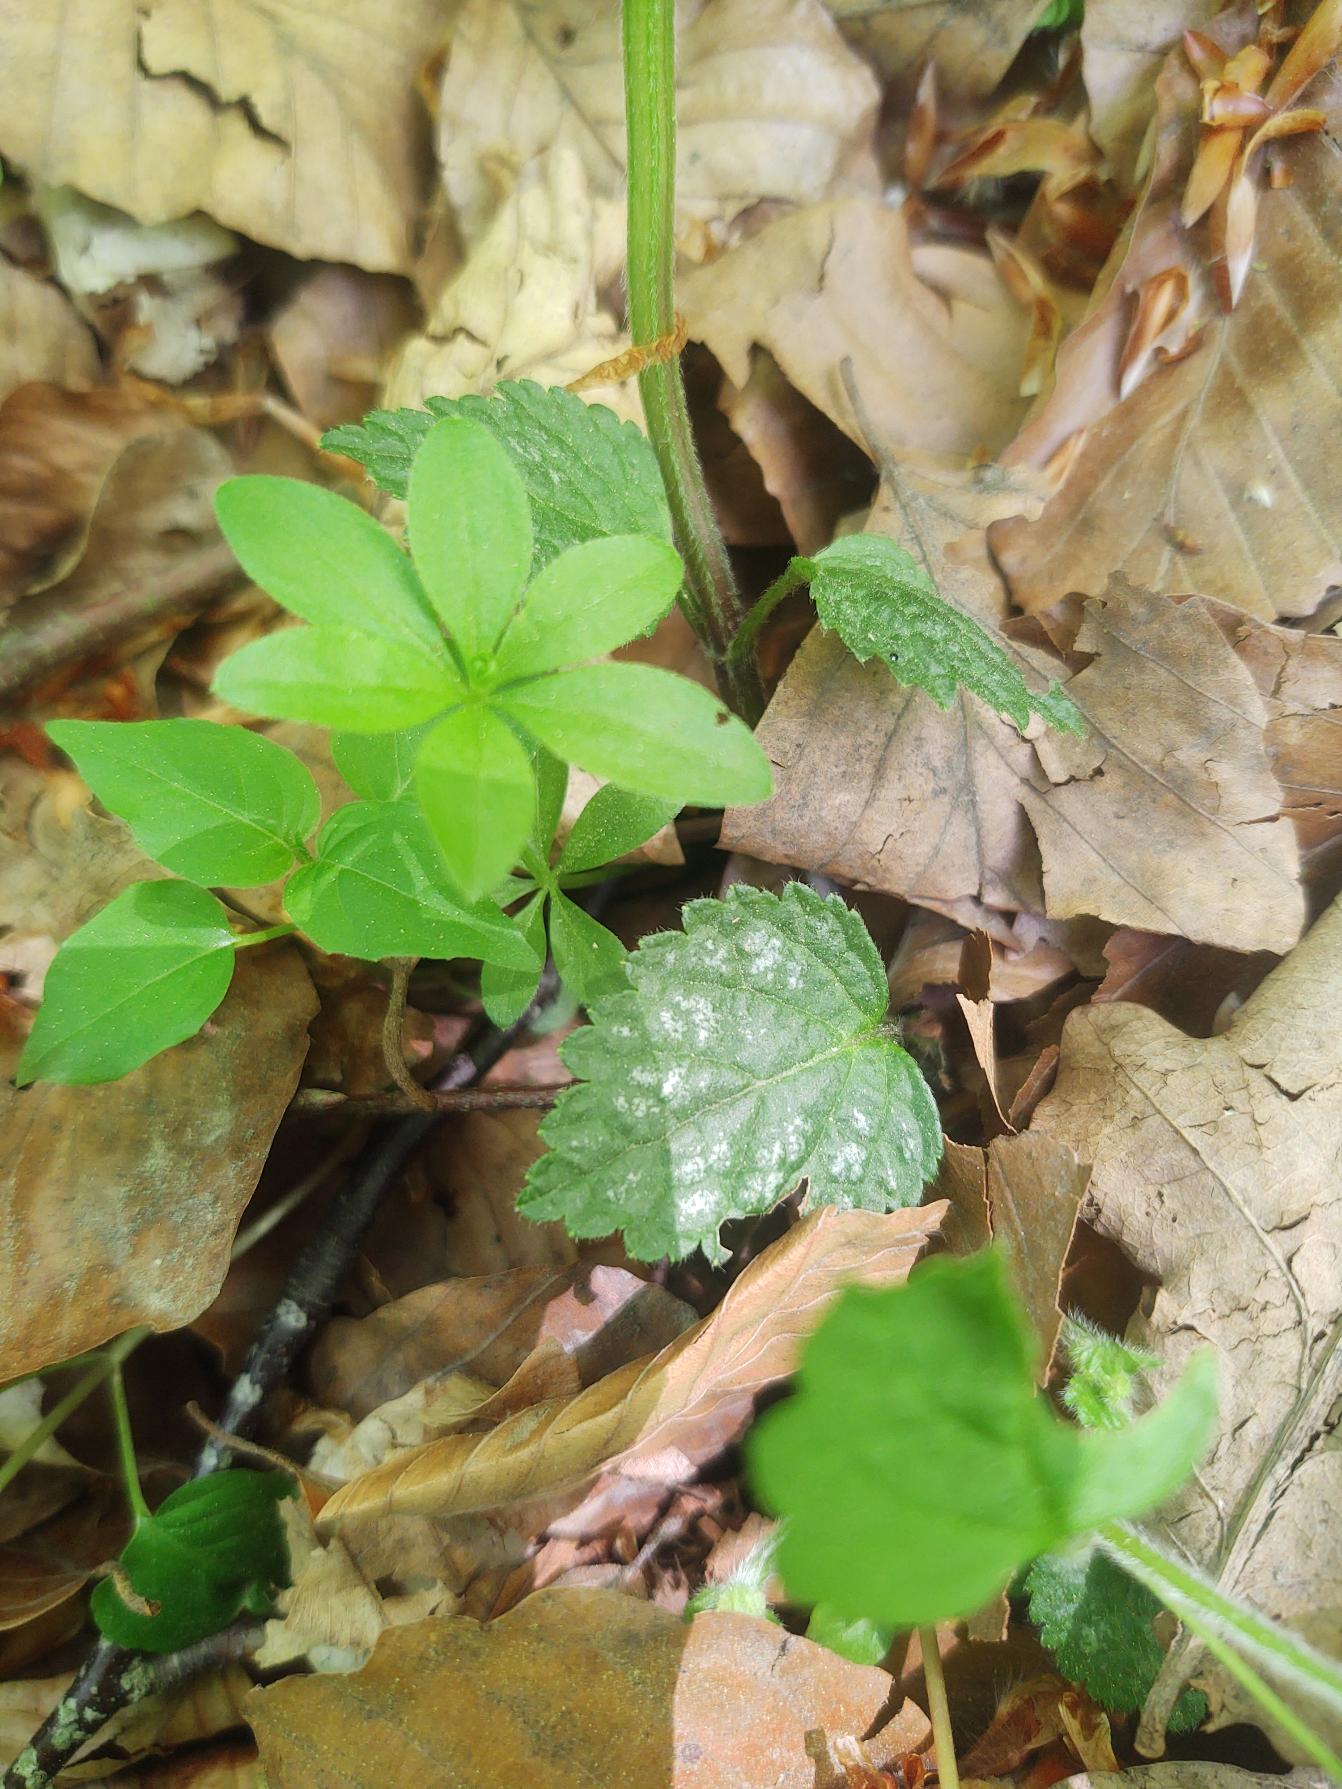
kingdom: Plantae
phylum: Tracheophyta
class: Magnoliopsida
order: Lamiales
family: Lamiaceae
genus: Lamium
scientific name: Lamium galeobdolon
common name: Almindelig guldnælde
